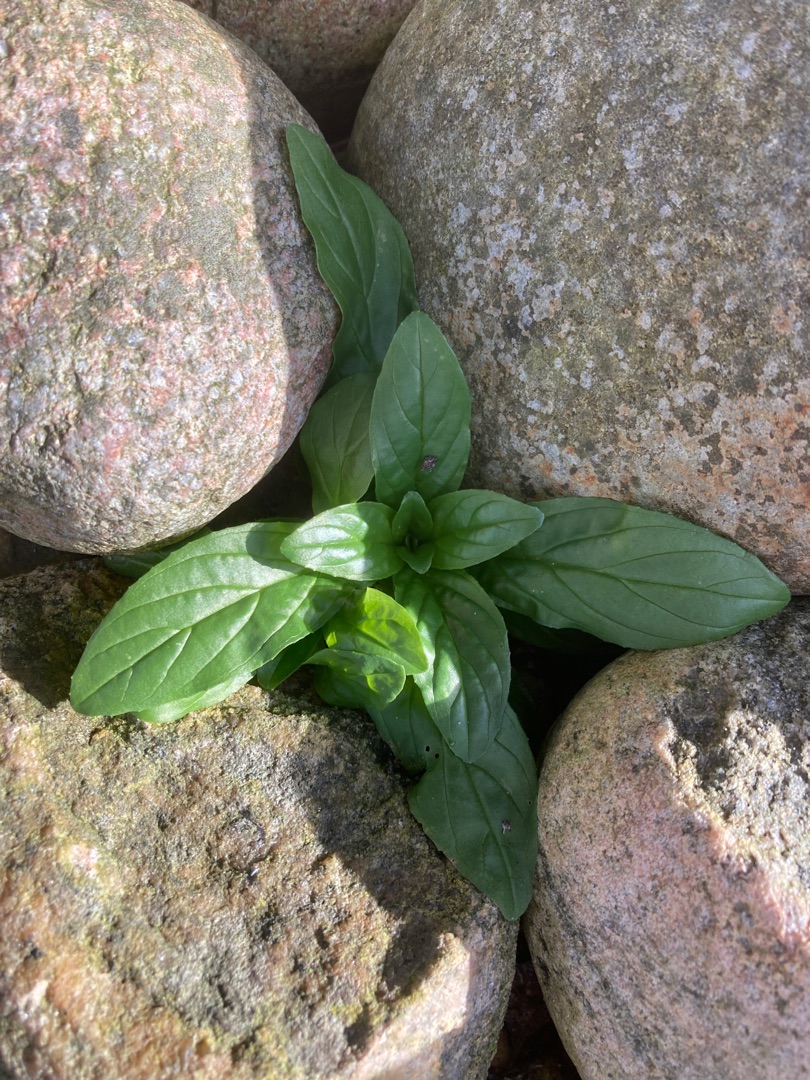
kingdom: Plantae
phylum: Tracheophyta
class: Magnoliopsida
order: Myrtales
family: Onagraceae
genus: Epilobium
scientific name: Epilobium
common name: Dueurtslægten
